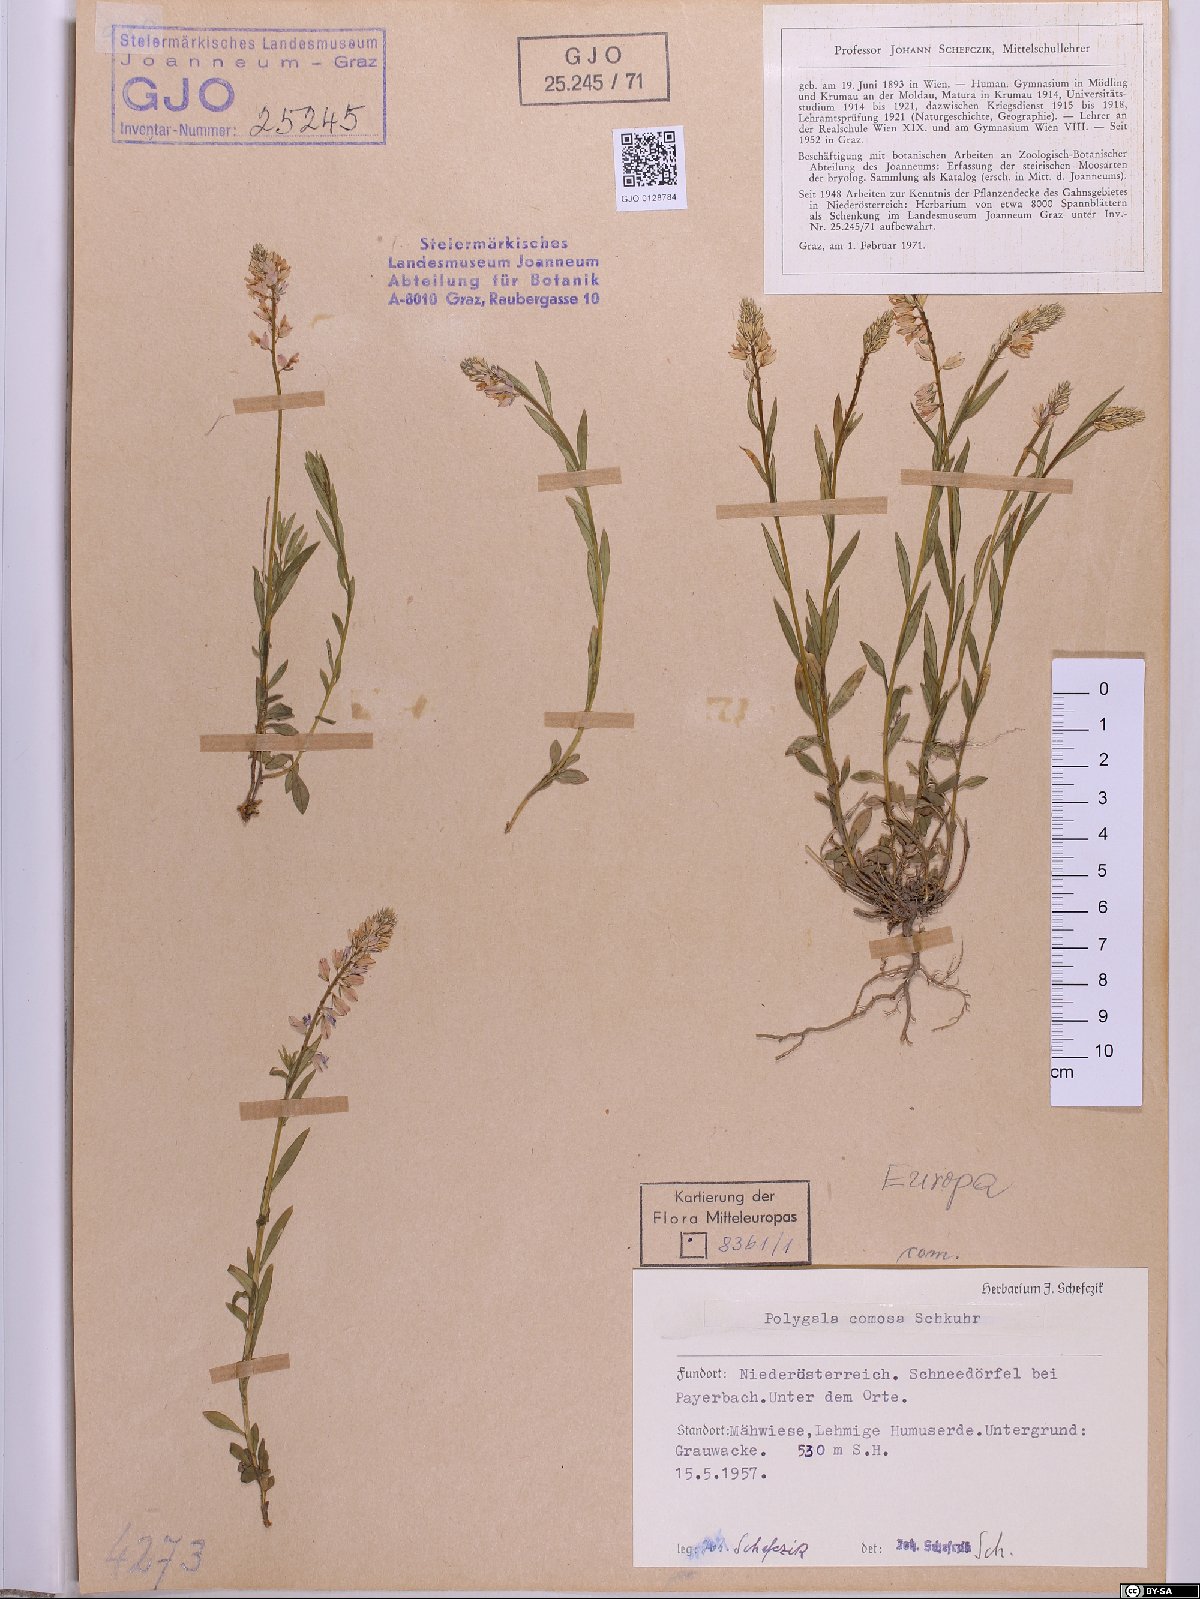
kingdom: Plantae
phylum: Tracheophyta
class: Magnoliopsida
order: Fabales
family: Polygalaceae
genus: Polygala
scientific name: Polygala comosa
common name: Tufted milkwort
